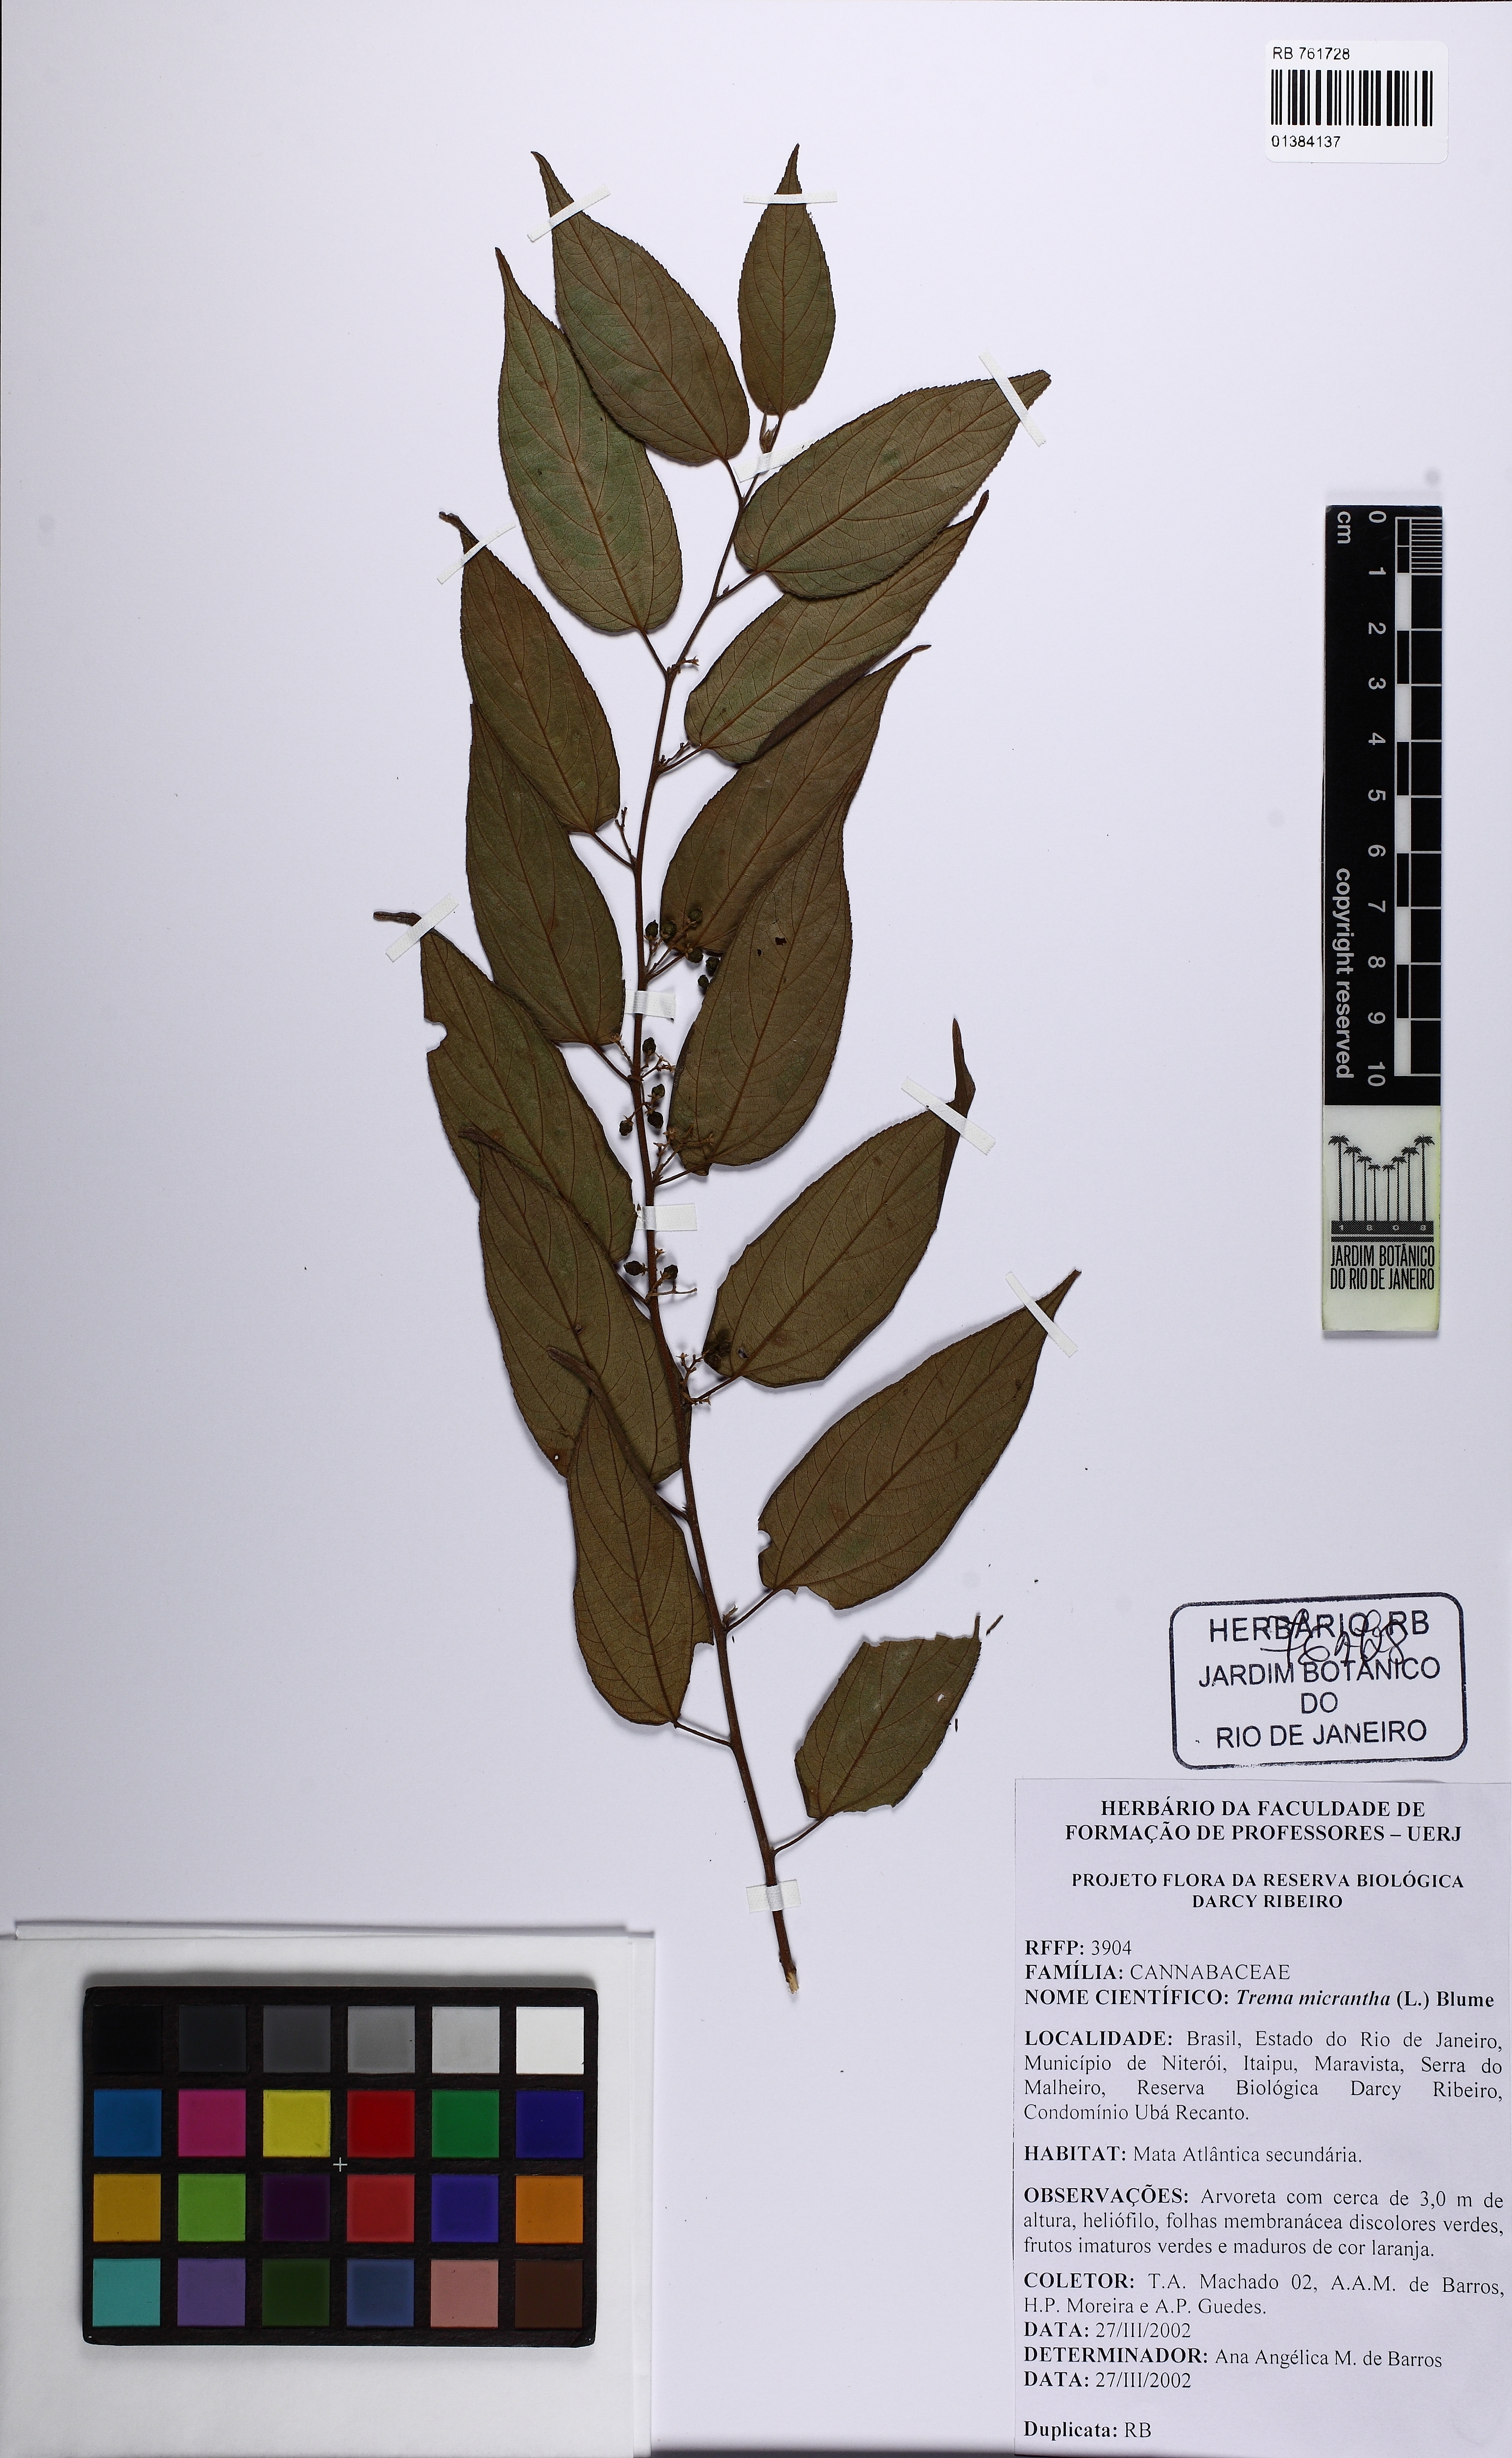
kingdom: Plantae
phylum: Tracheophyta
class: Magnoliopsida
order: Rosales
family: Cannabaceae
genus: Trema
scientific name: Trema micranthum
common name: Jamaican nettletree
